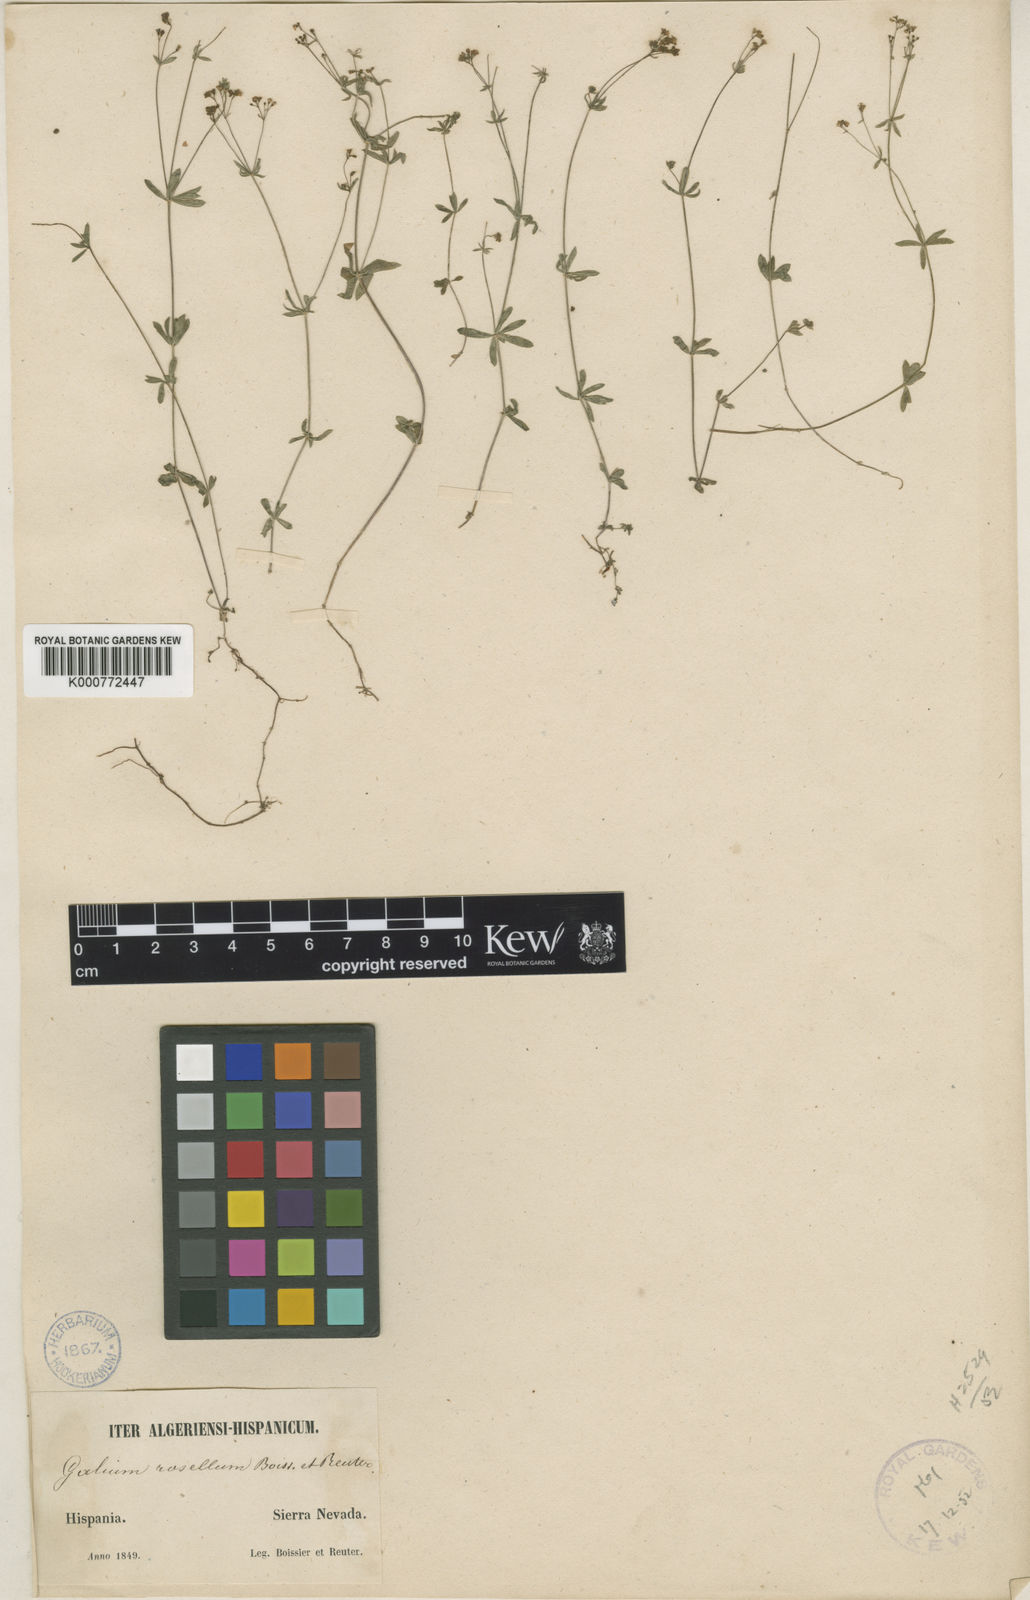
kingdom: Plantae
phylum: Tracheophyta
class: Magnoliopsida
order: Gentianales
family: Rubiaceae
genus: Galium
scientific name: Galium rosellum
